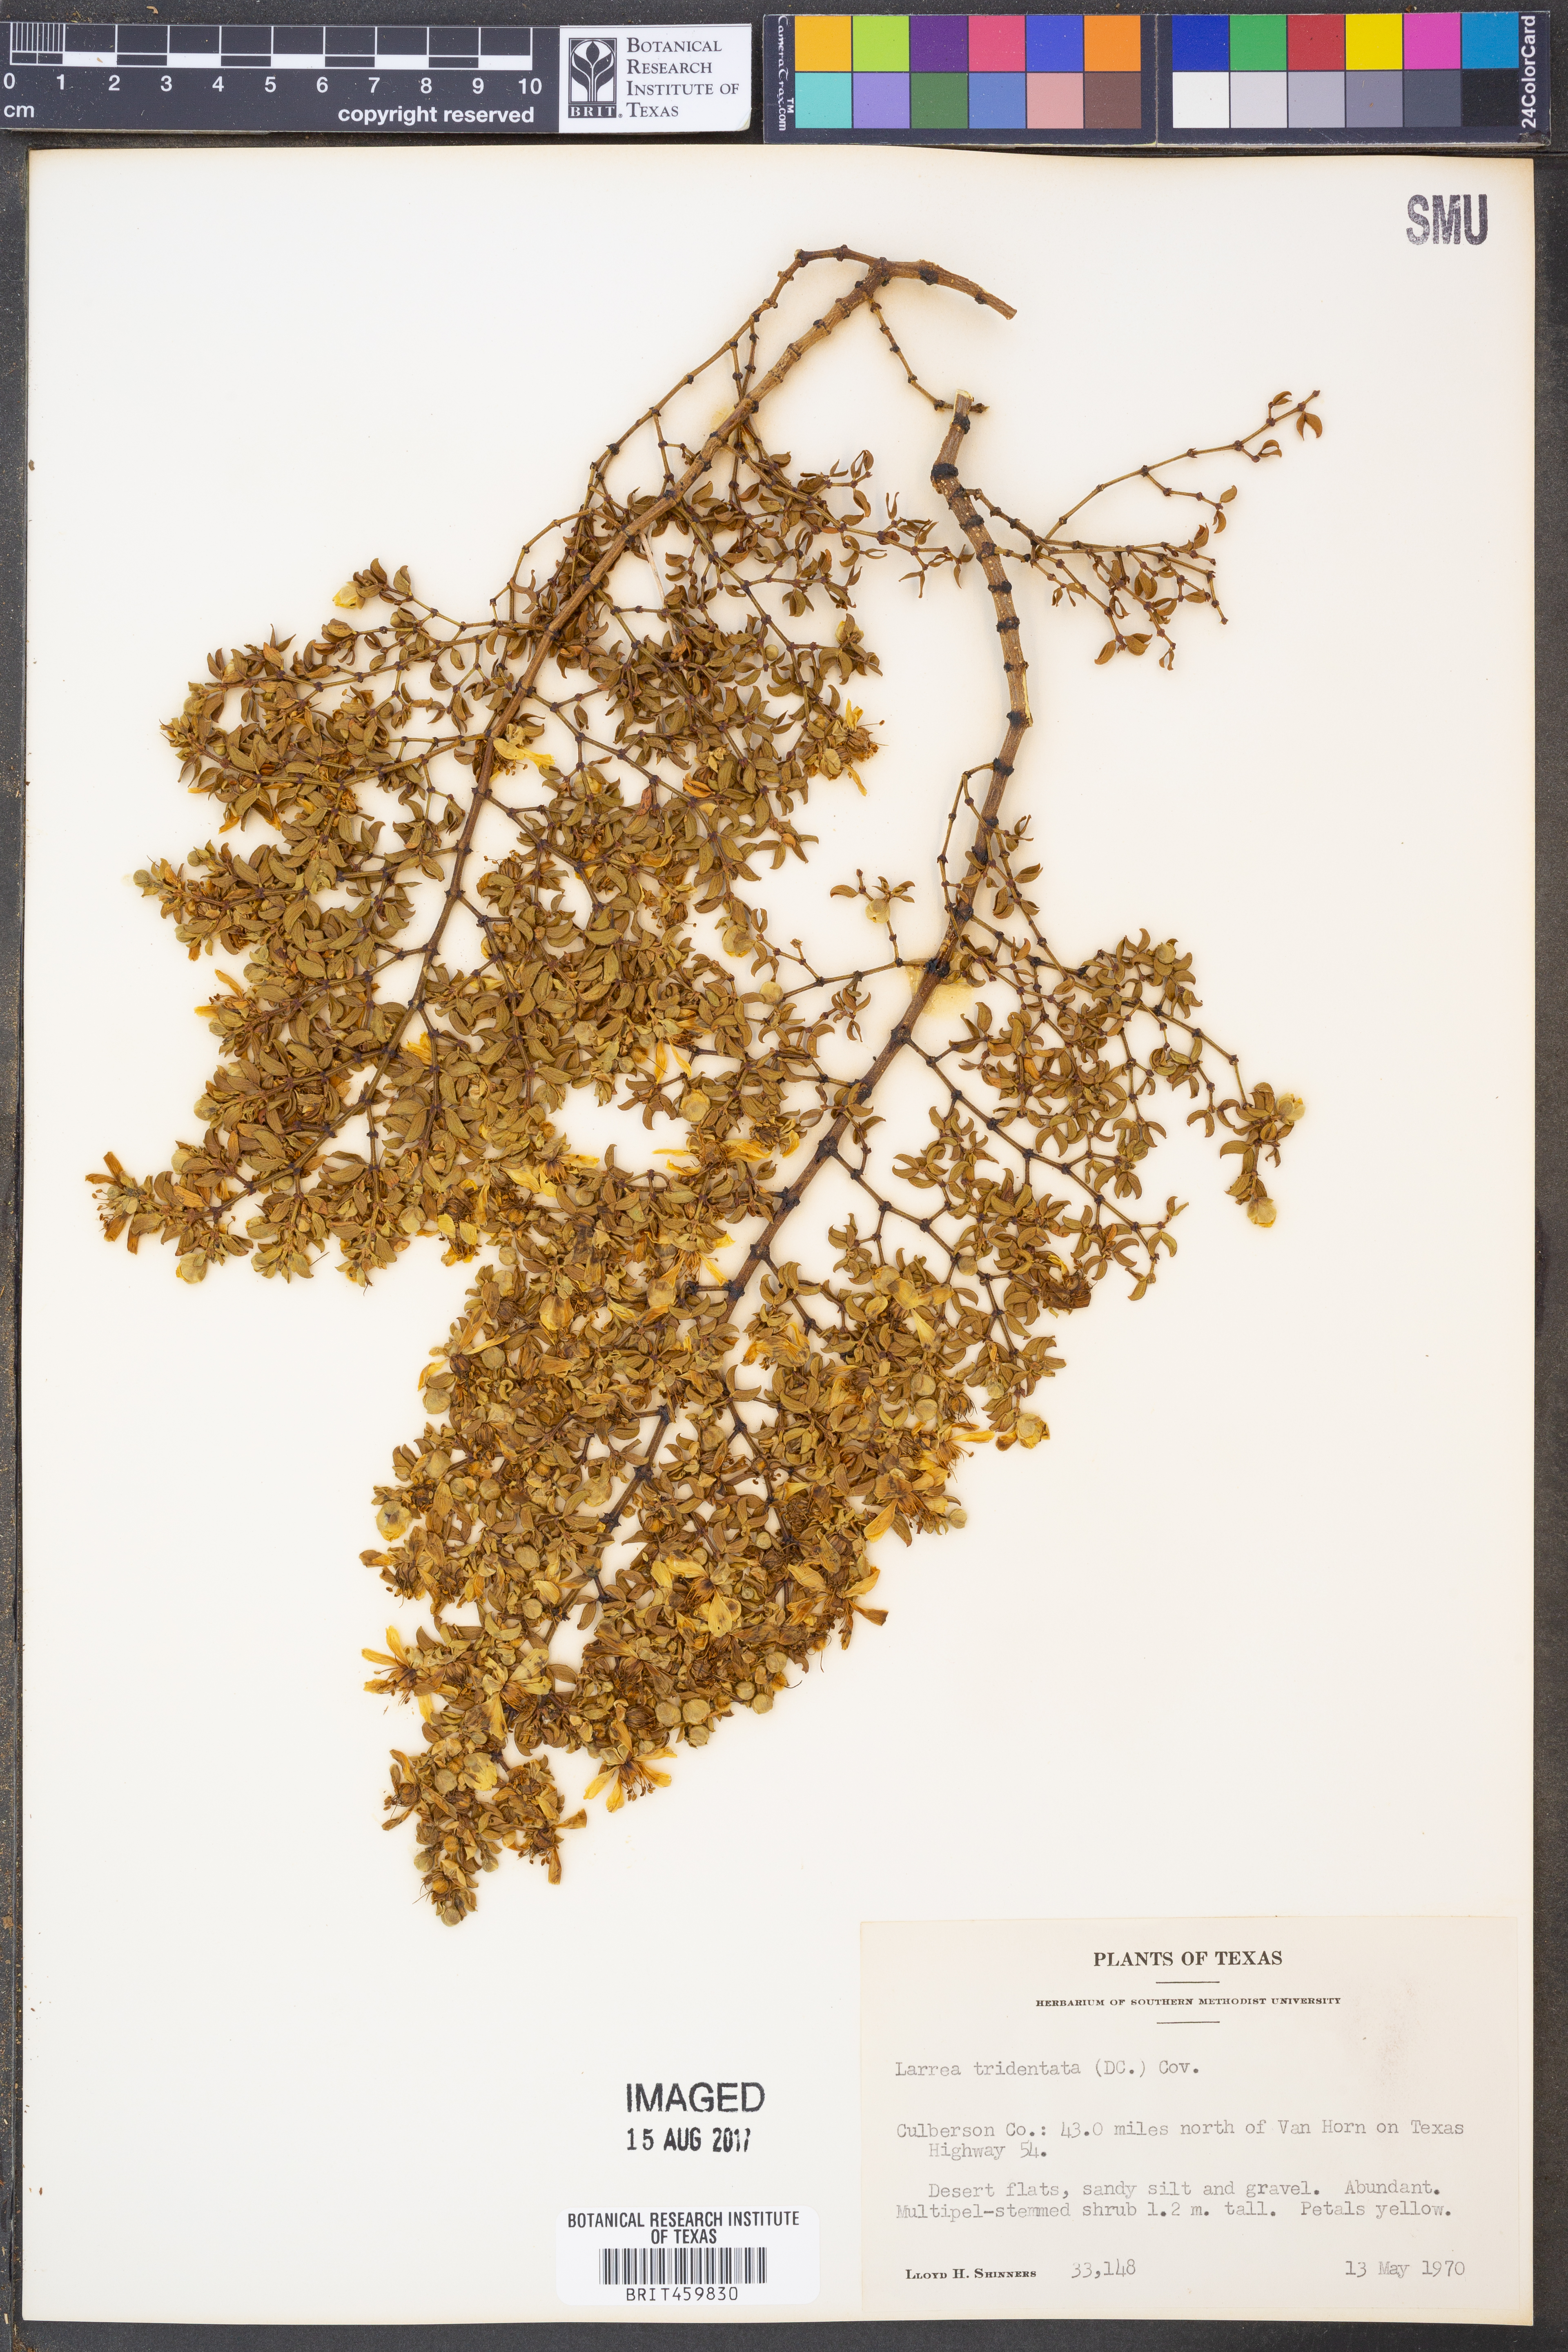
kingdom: Plantae
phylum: Tracheophyta
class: Magnoliopsida
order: Zygophyllales
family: Zygophyllaceae
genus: Larrea
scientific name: Larrea tridentata
